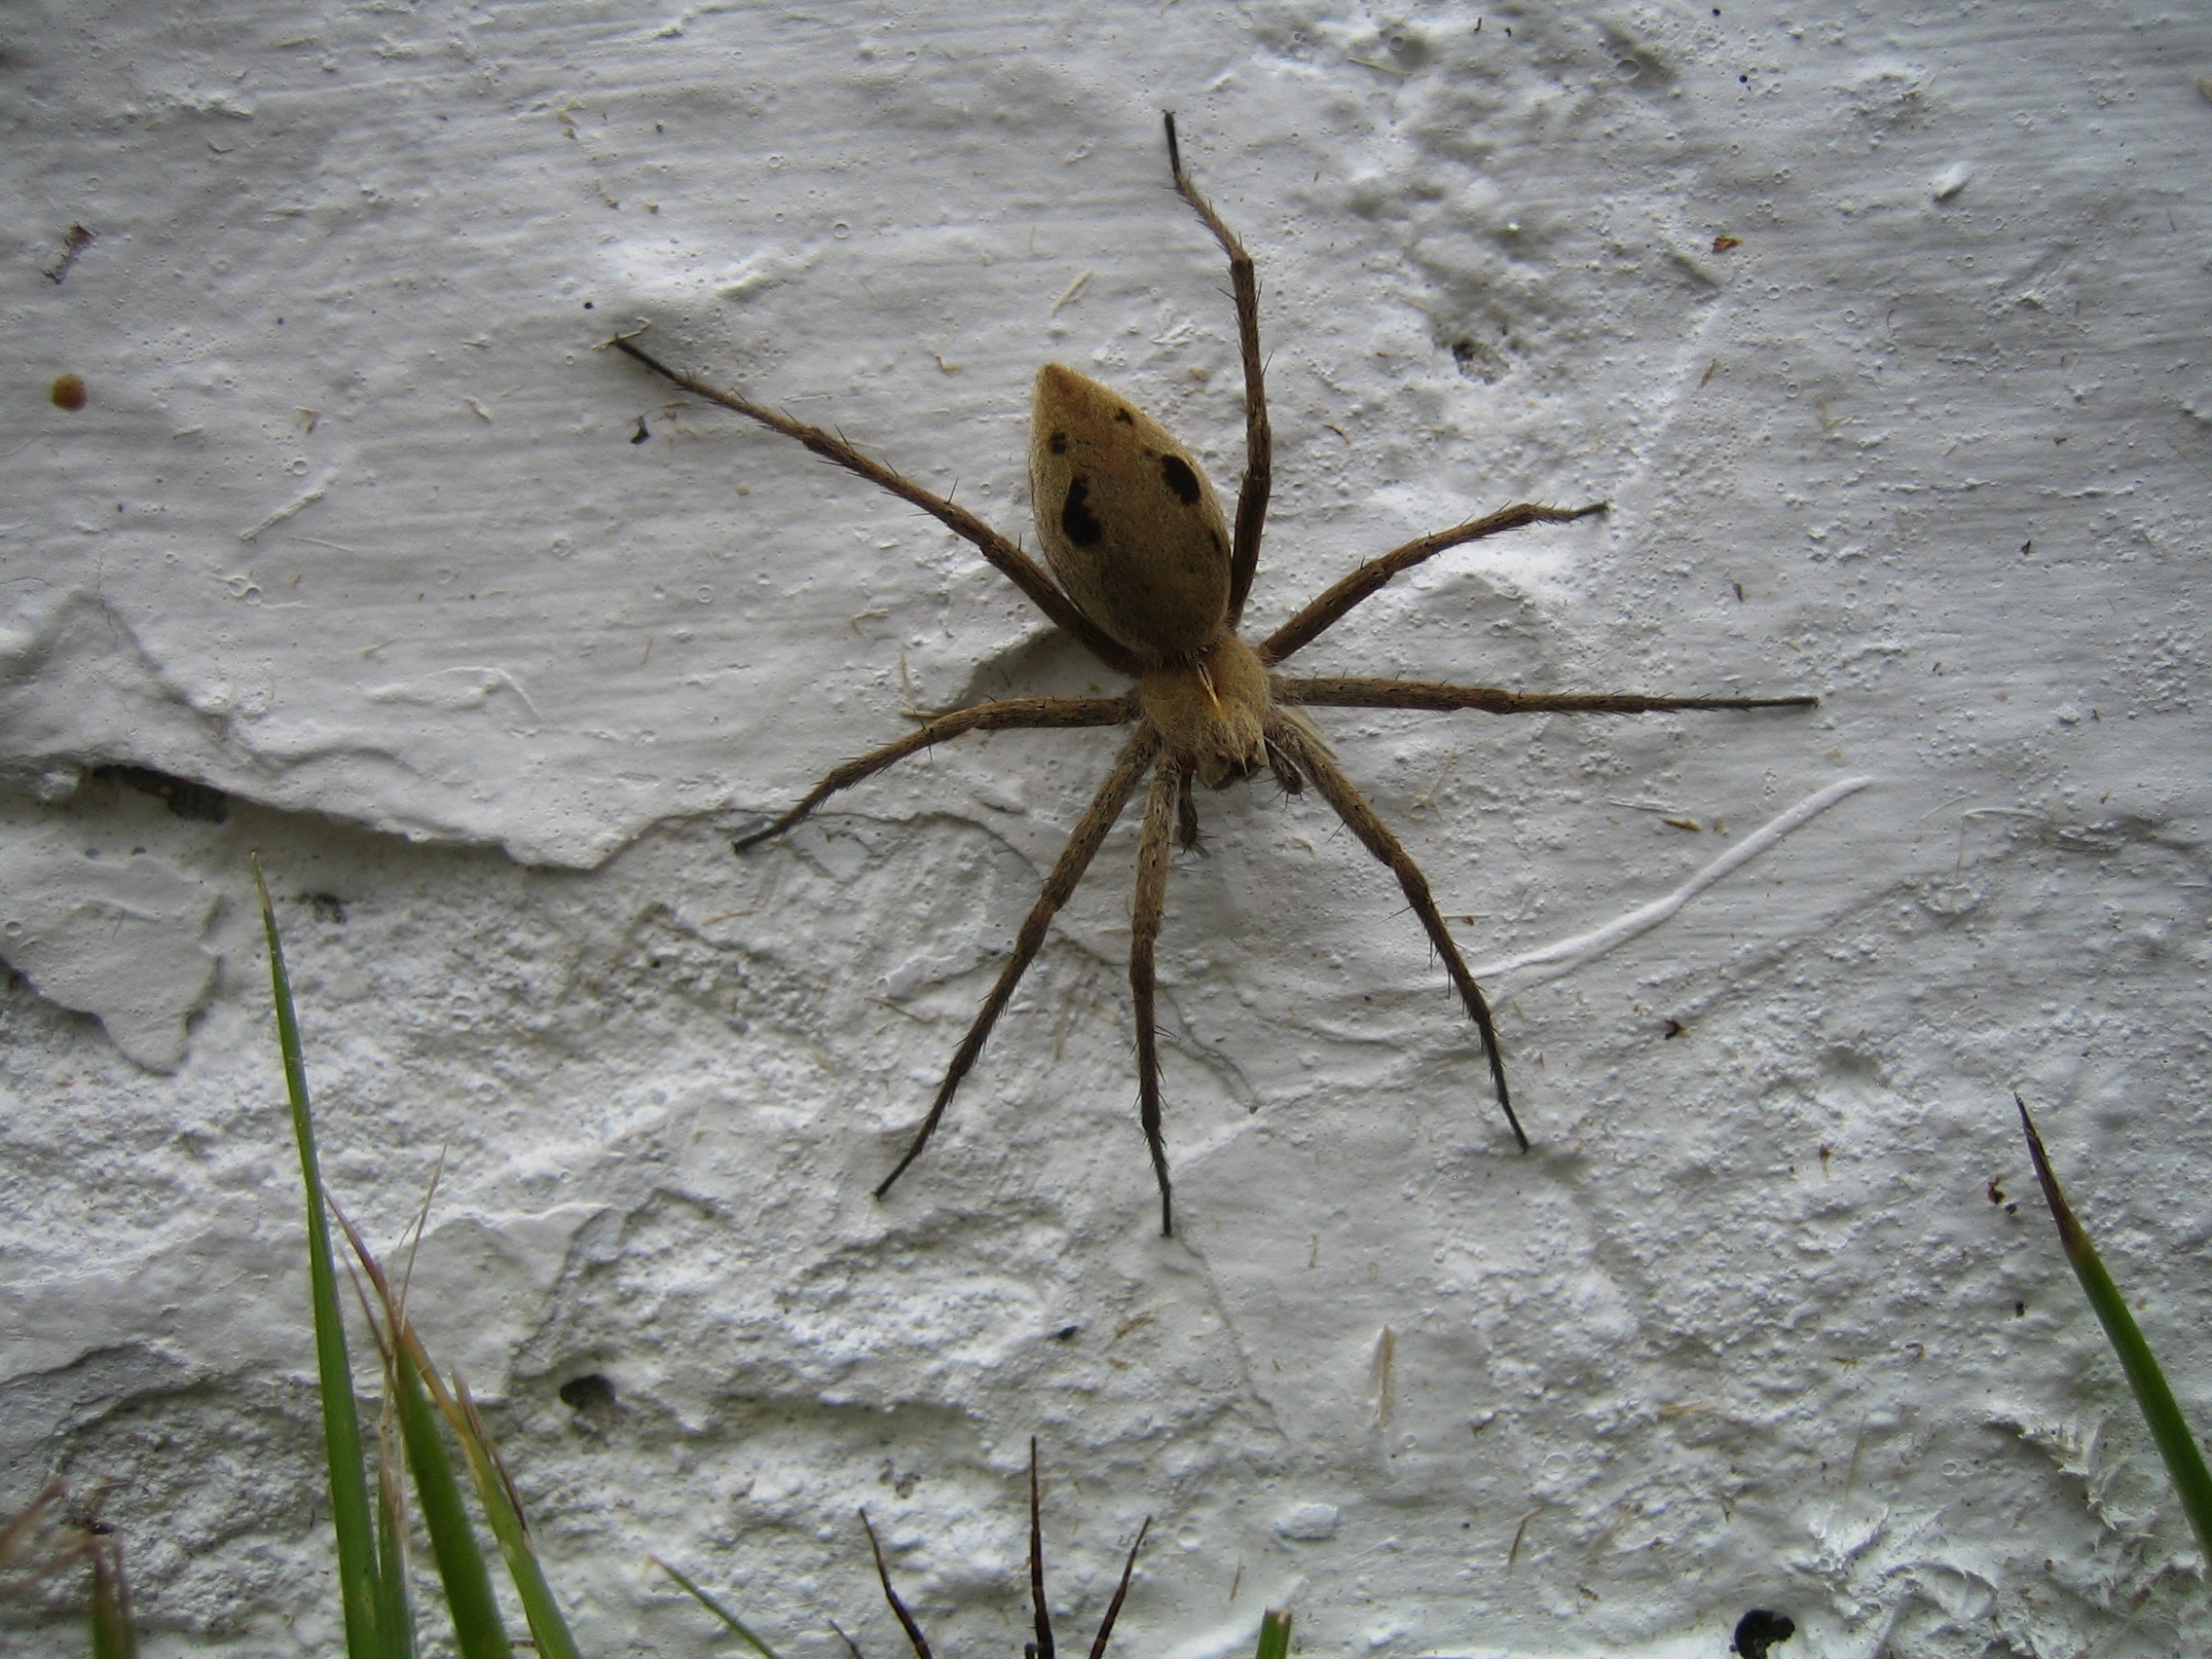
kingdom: Animalia
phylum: Arthropoda
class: Arachnida
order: Araneae
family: Pisauridae
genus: Pisaura
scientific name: Pisaura mirabilis
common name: Almindelig rovedderkop
